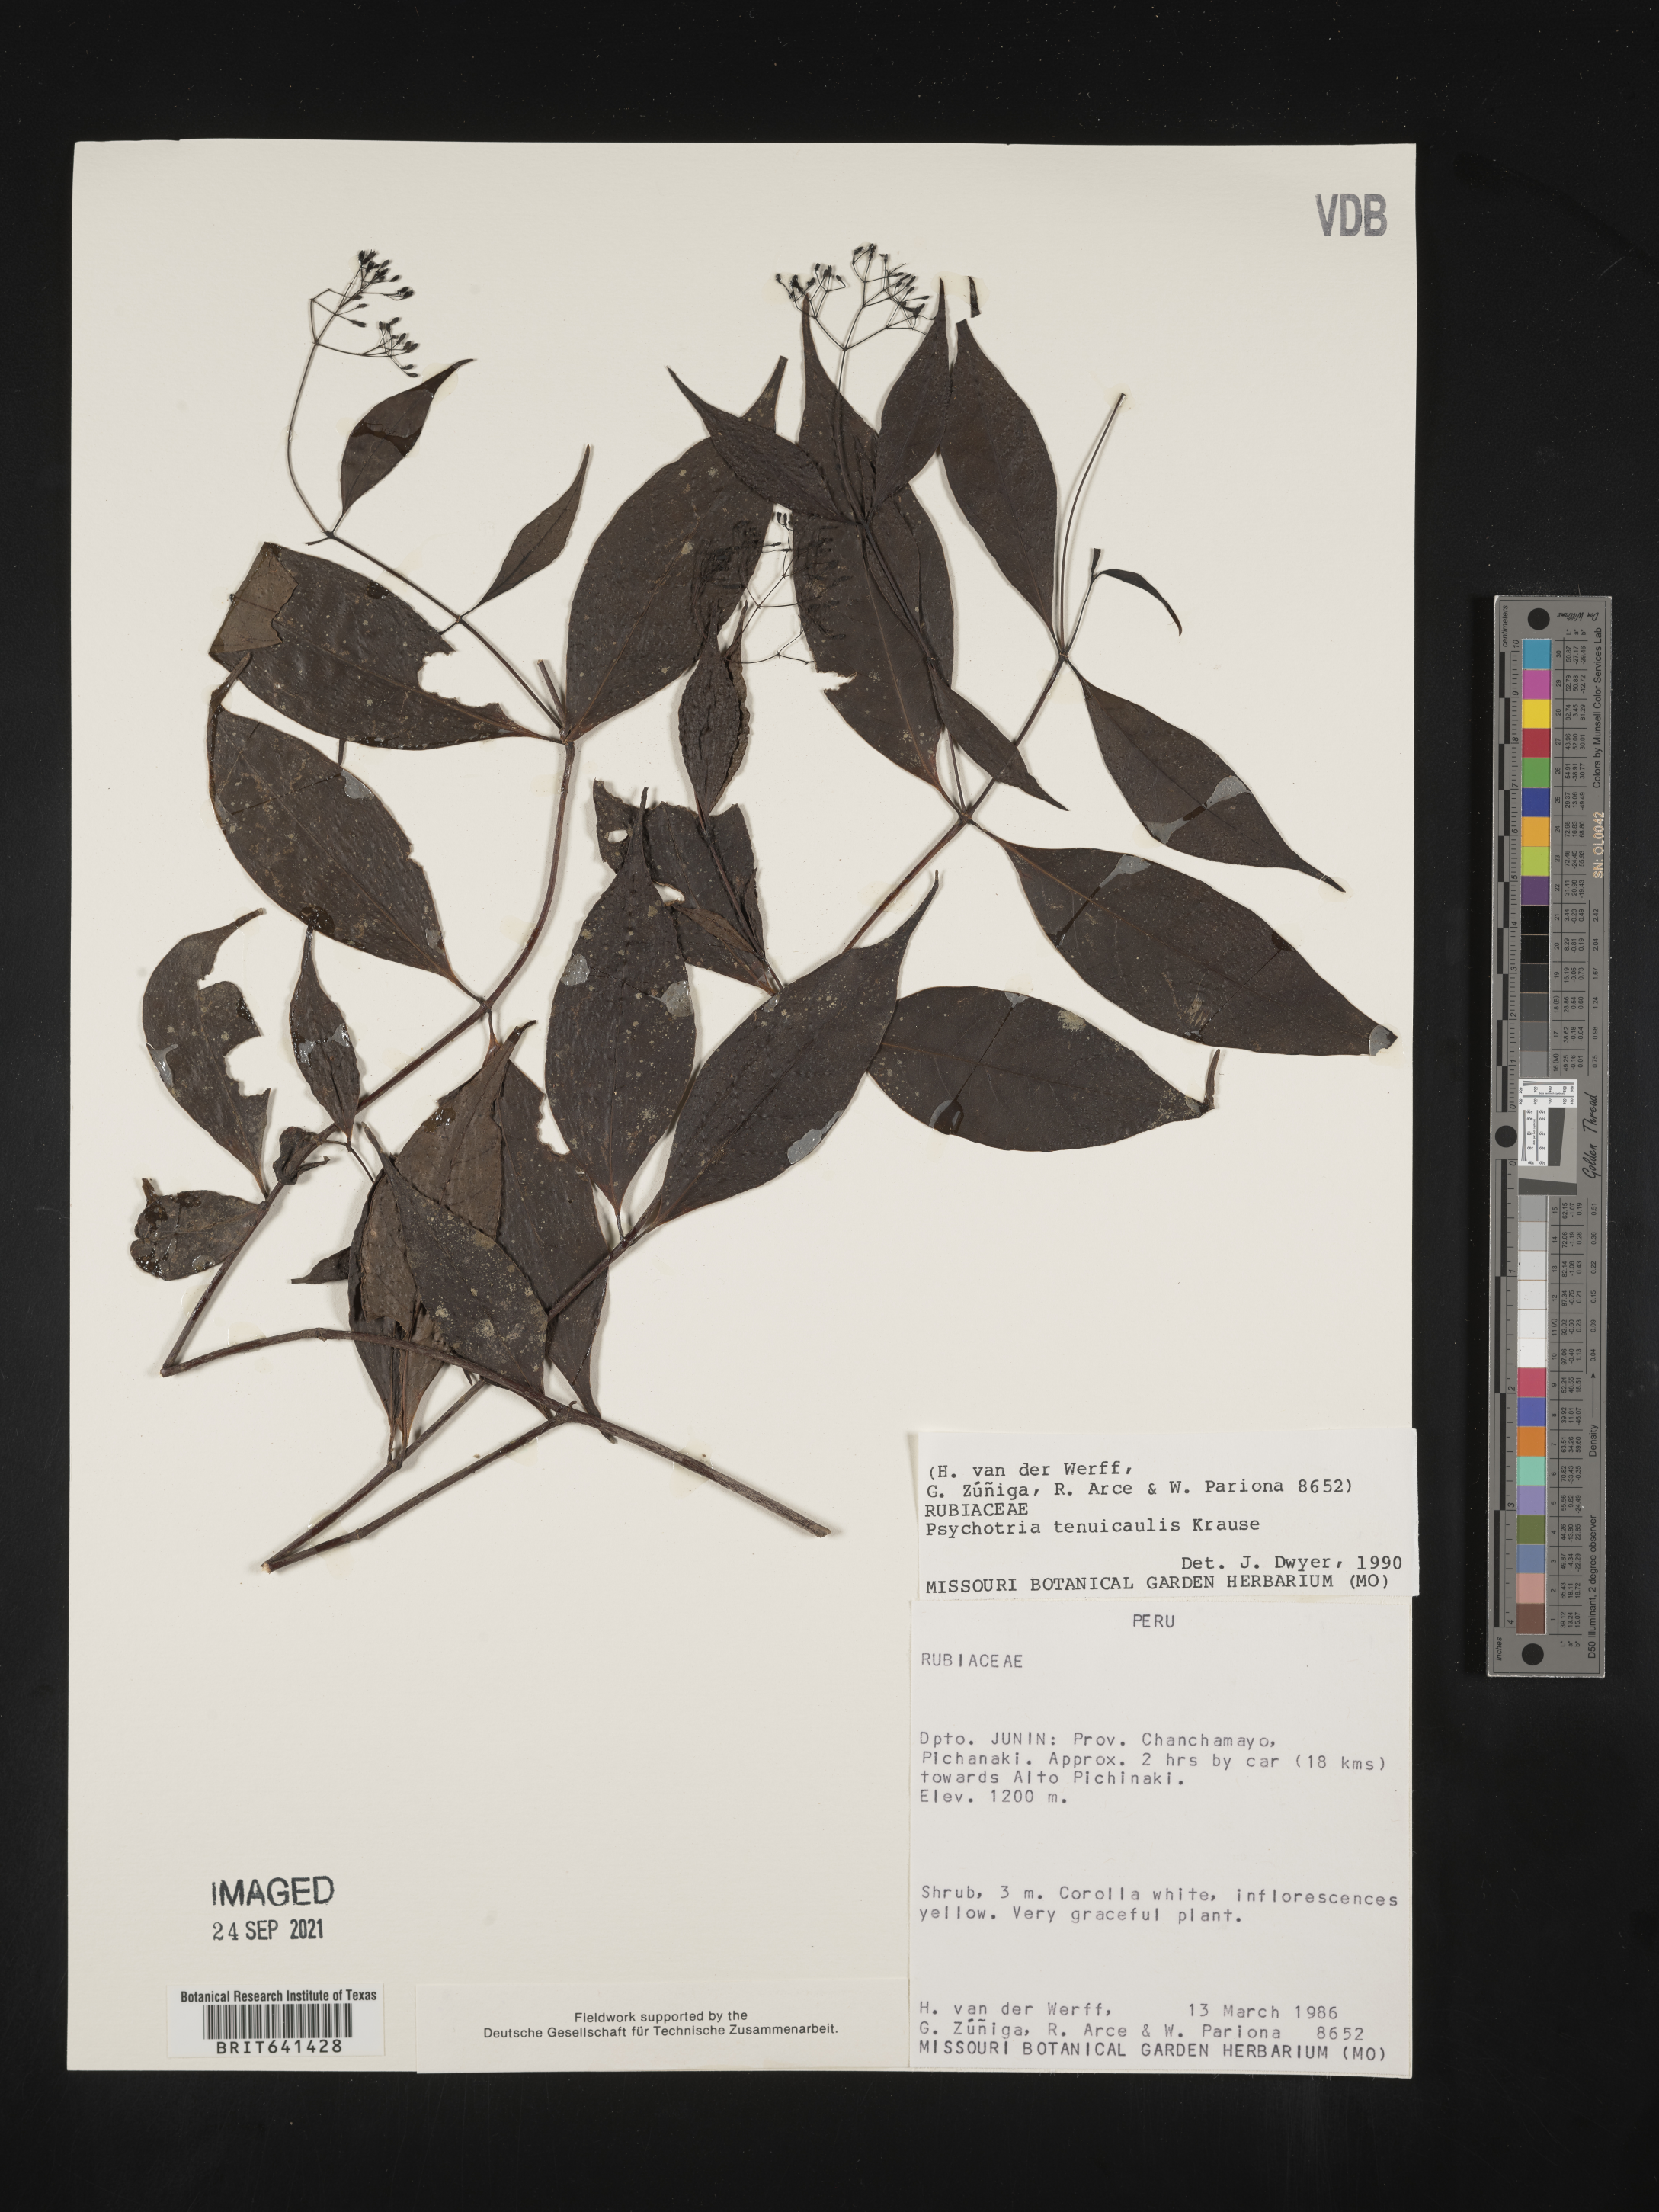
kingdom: Plantae
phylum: Tracheophyta
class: Magnoliopsida
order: Gentianales
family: Rubiaceae
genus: Psychotria
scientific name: Psychotria
